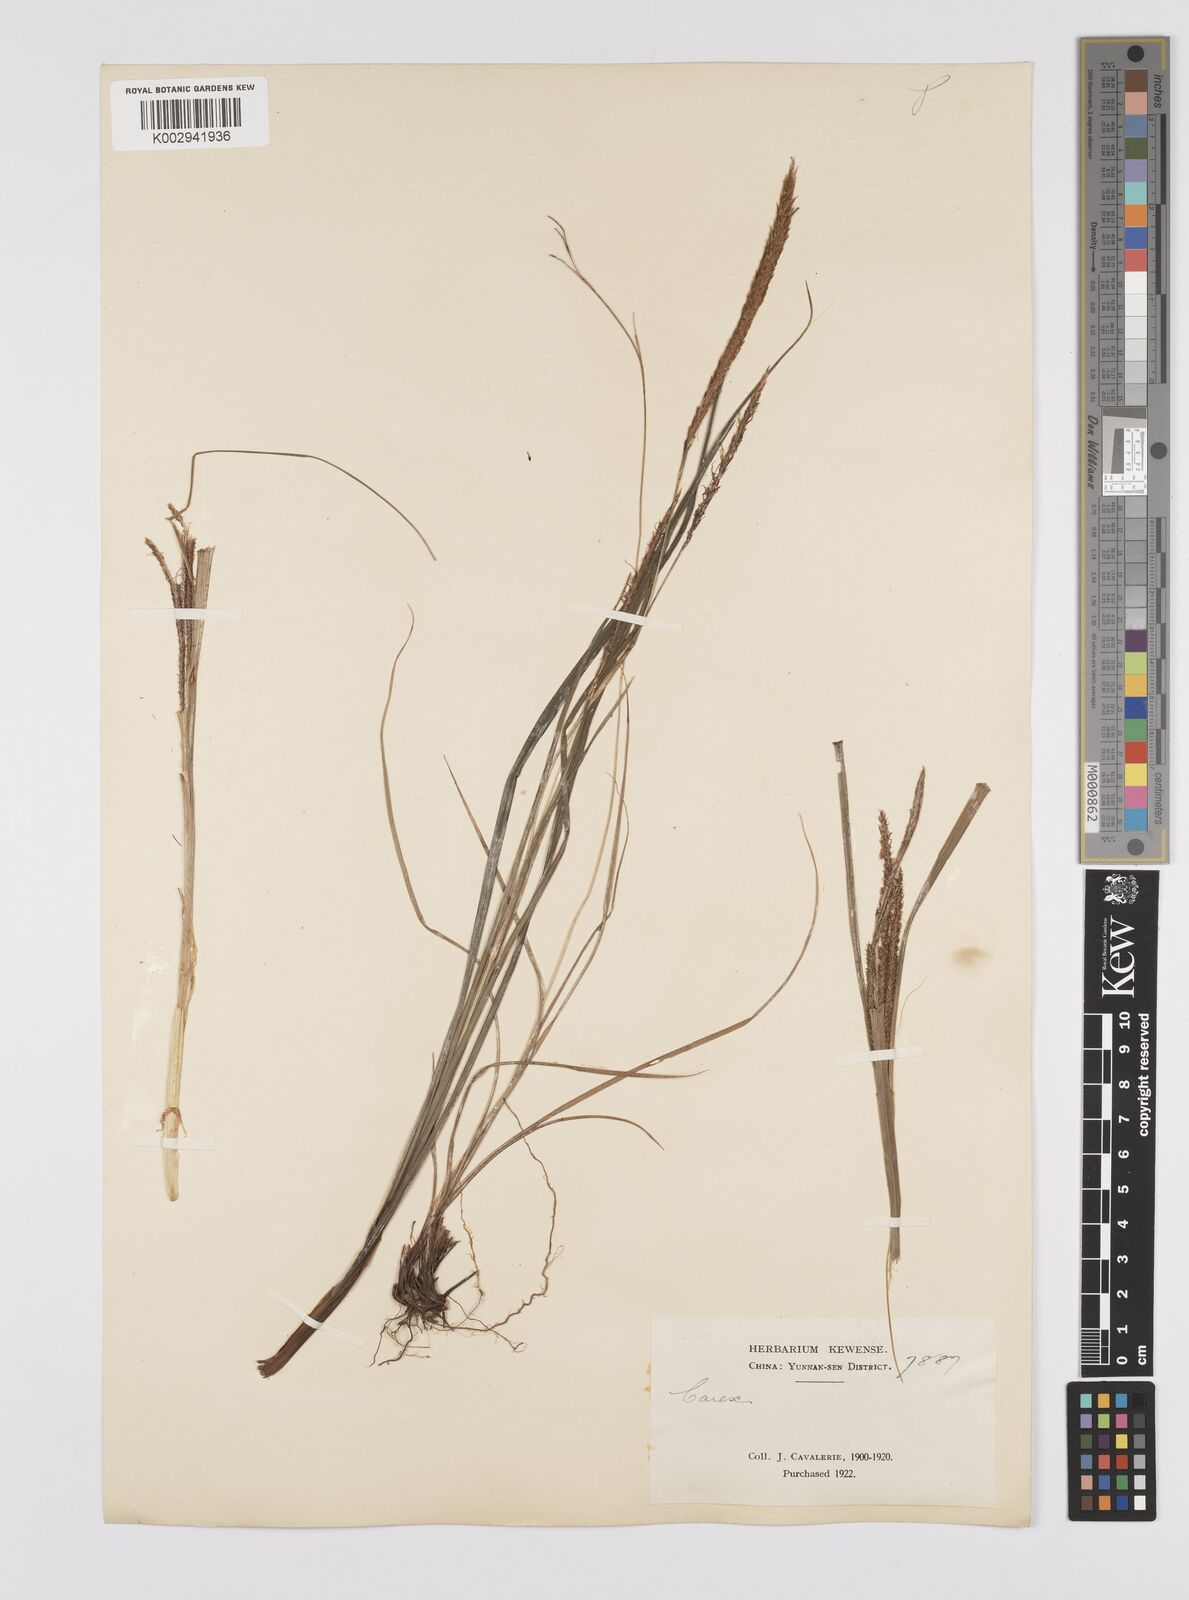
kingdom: Plantae
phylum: Tracheophyta
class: Liliopsida
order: Poales
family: Cyperaceae
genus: Carex
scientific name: Carex tumida
